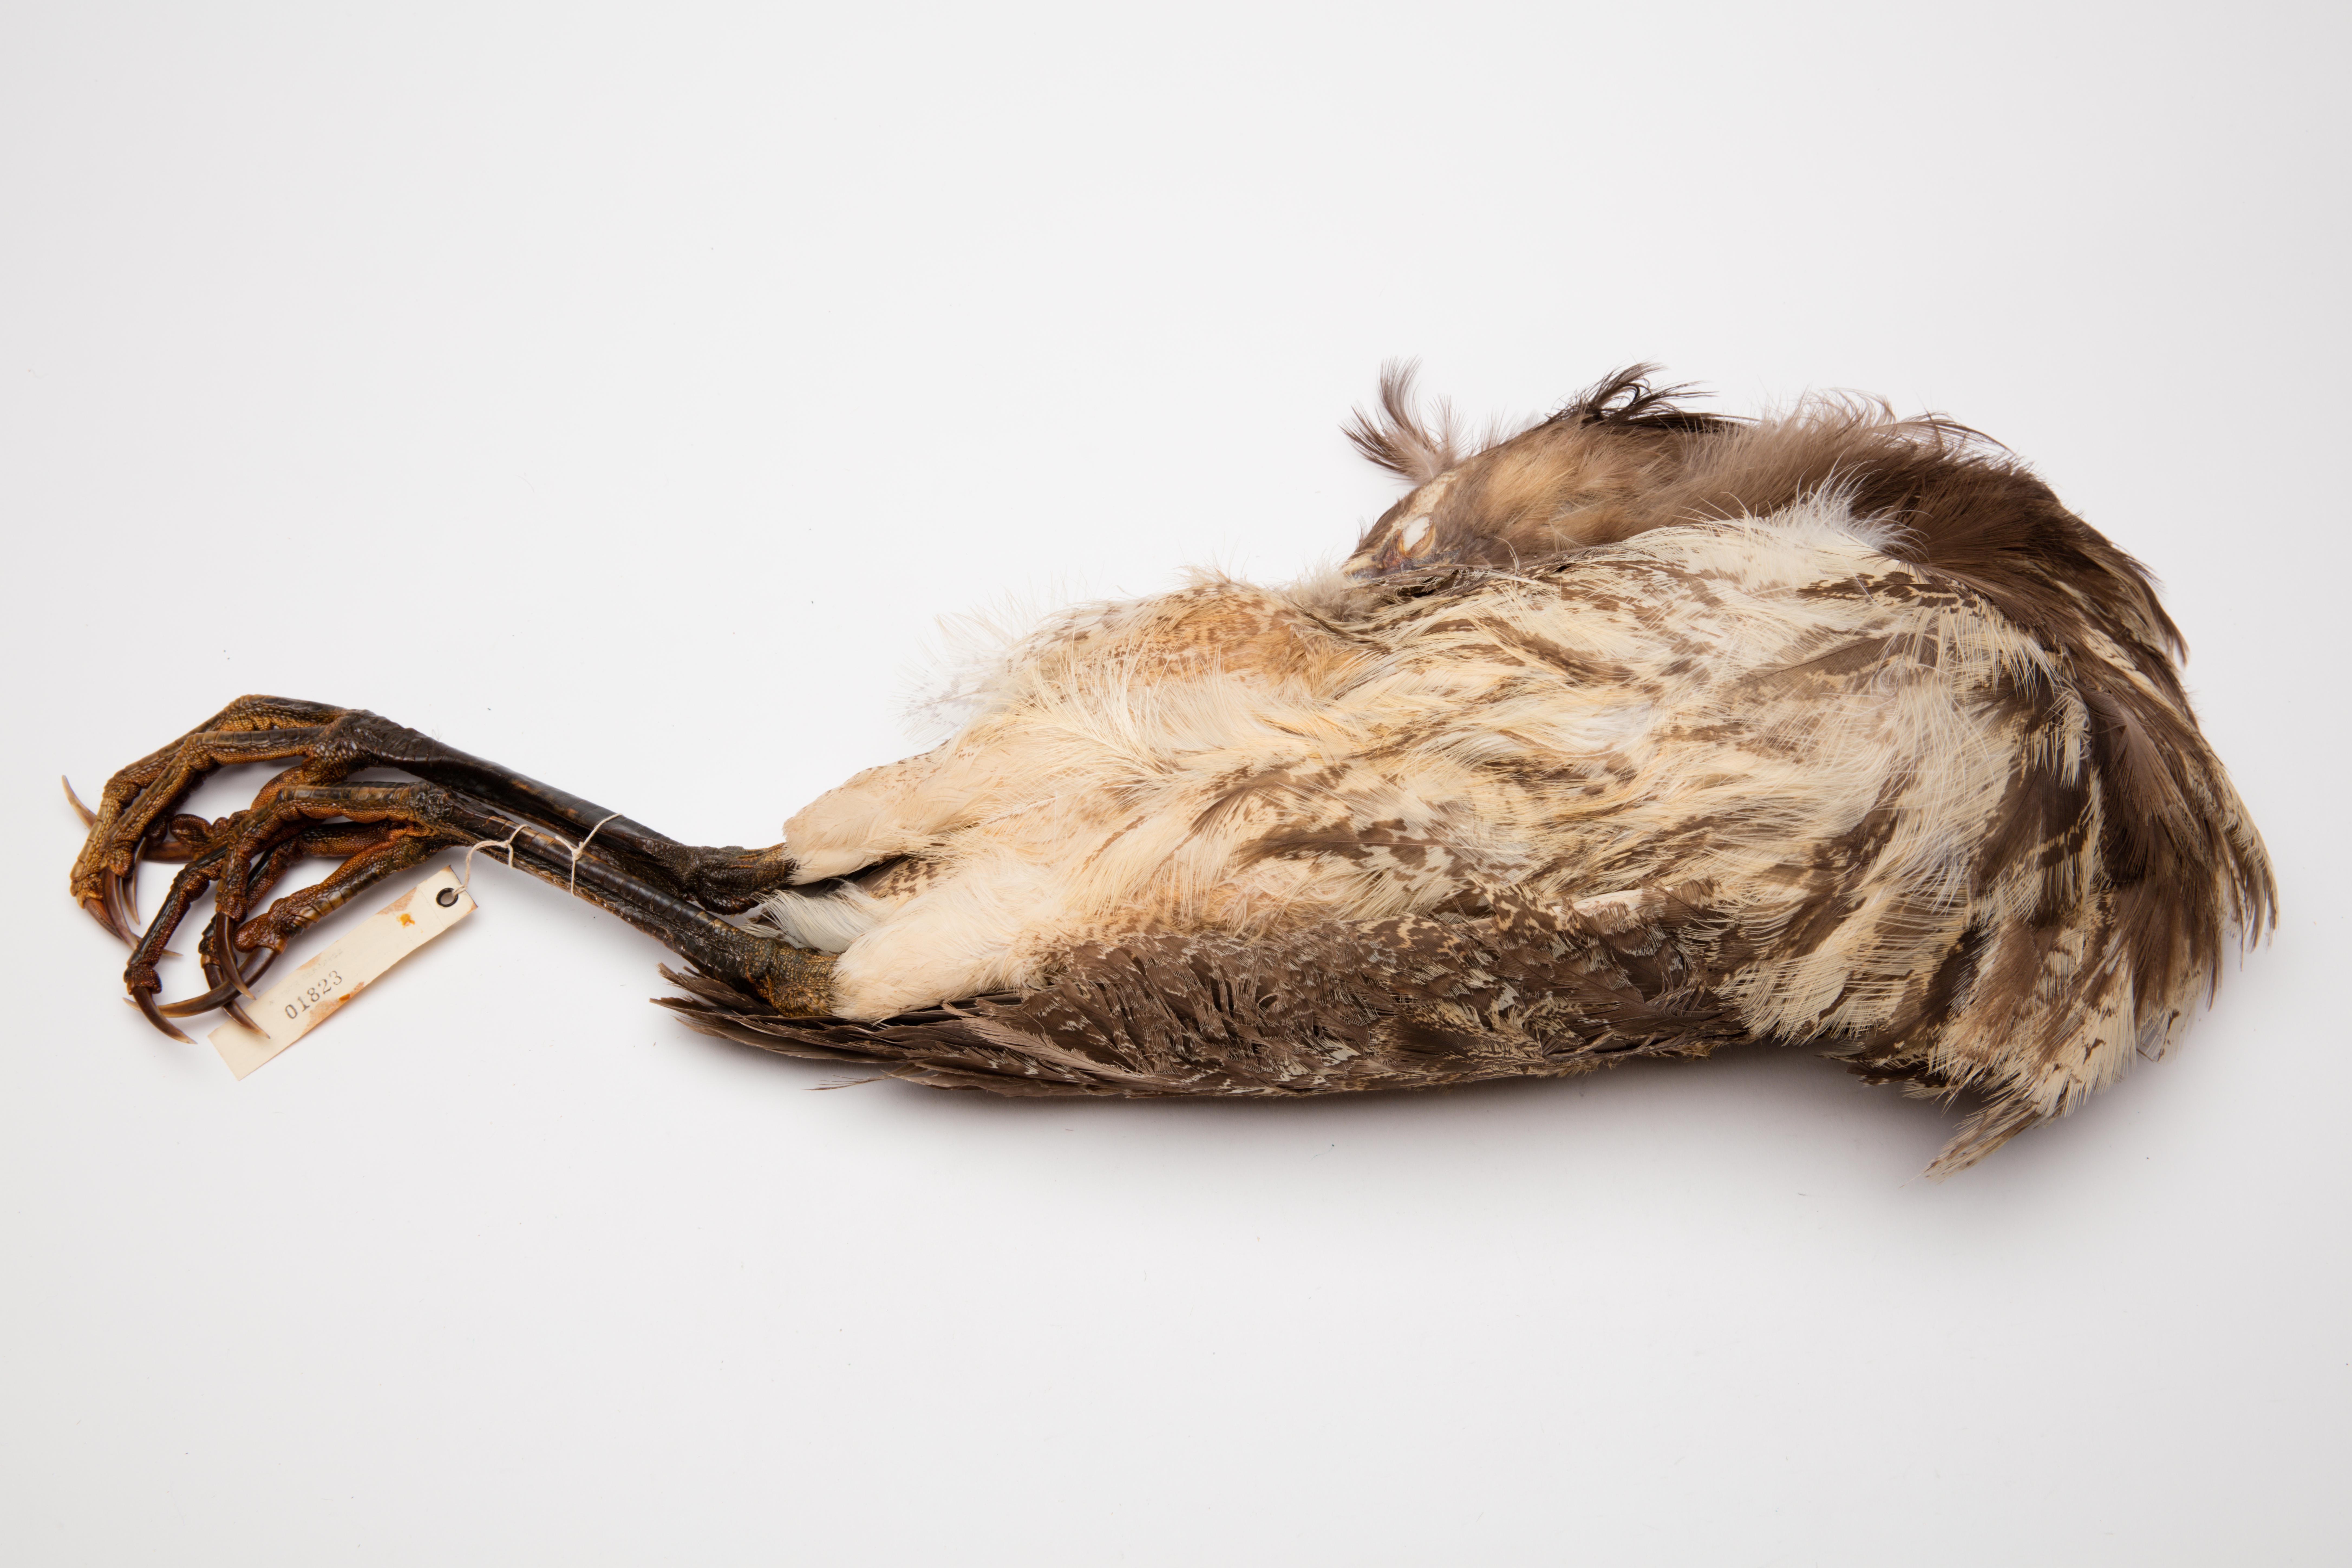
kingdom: Animalia
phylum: Chordata
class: Aves
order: Pelecaniformes
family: Ardeidae
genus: Botaurus
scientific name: Botaurus poiciloptilus
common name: Australasian bittern
